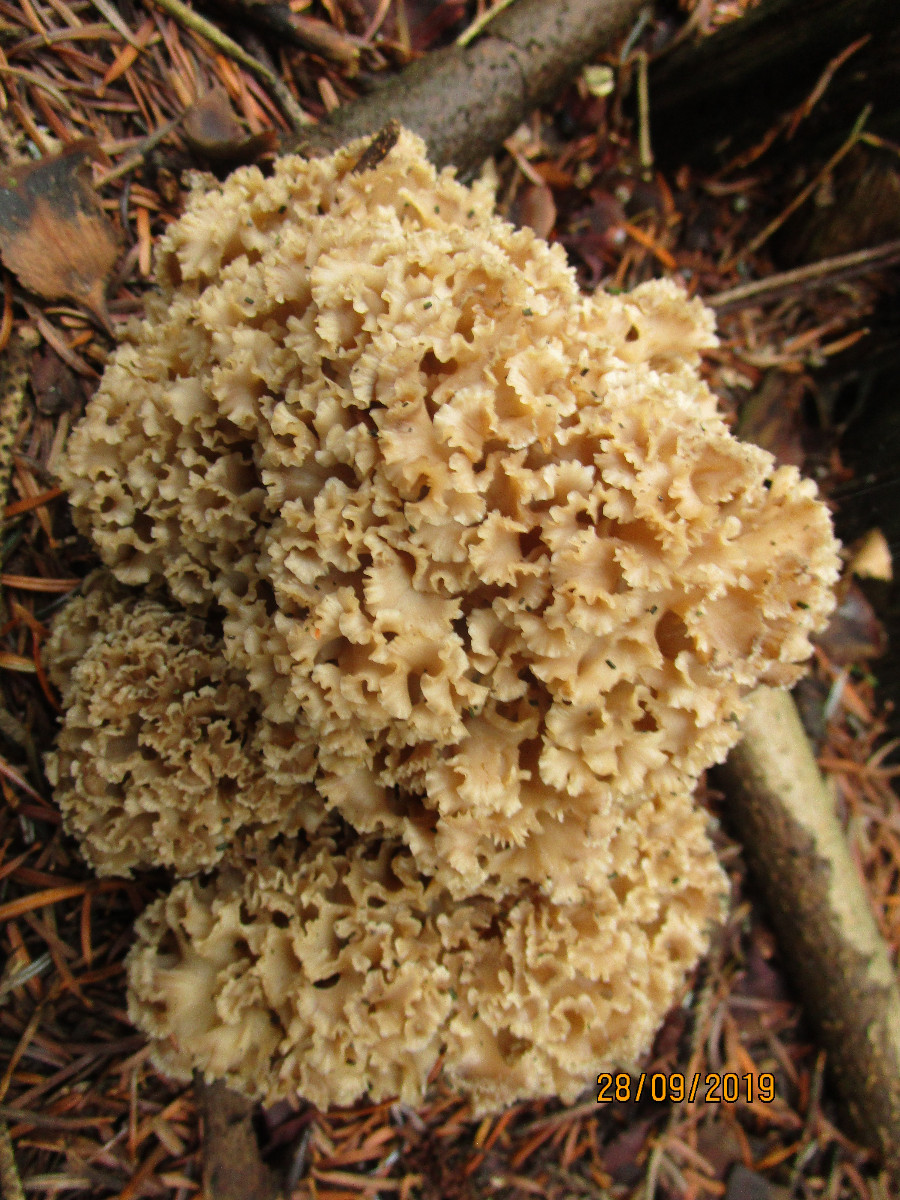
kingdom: Fungi
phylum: Basidiomycota
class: Agaricomycetes
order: Polyporales
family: Sparassidaceae
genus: Sparassis
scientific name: Sparassis crispa
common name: kruset blomkålssvamp
